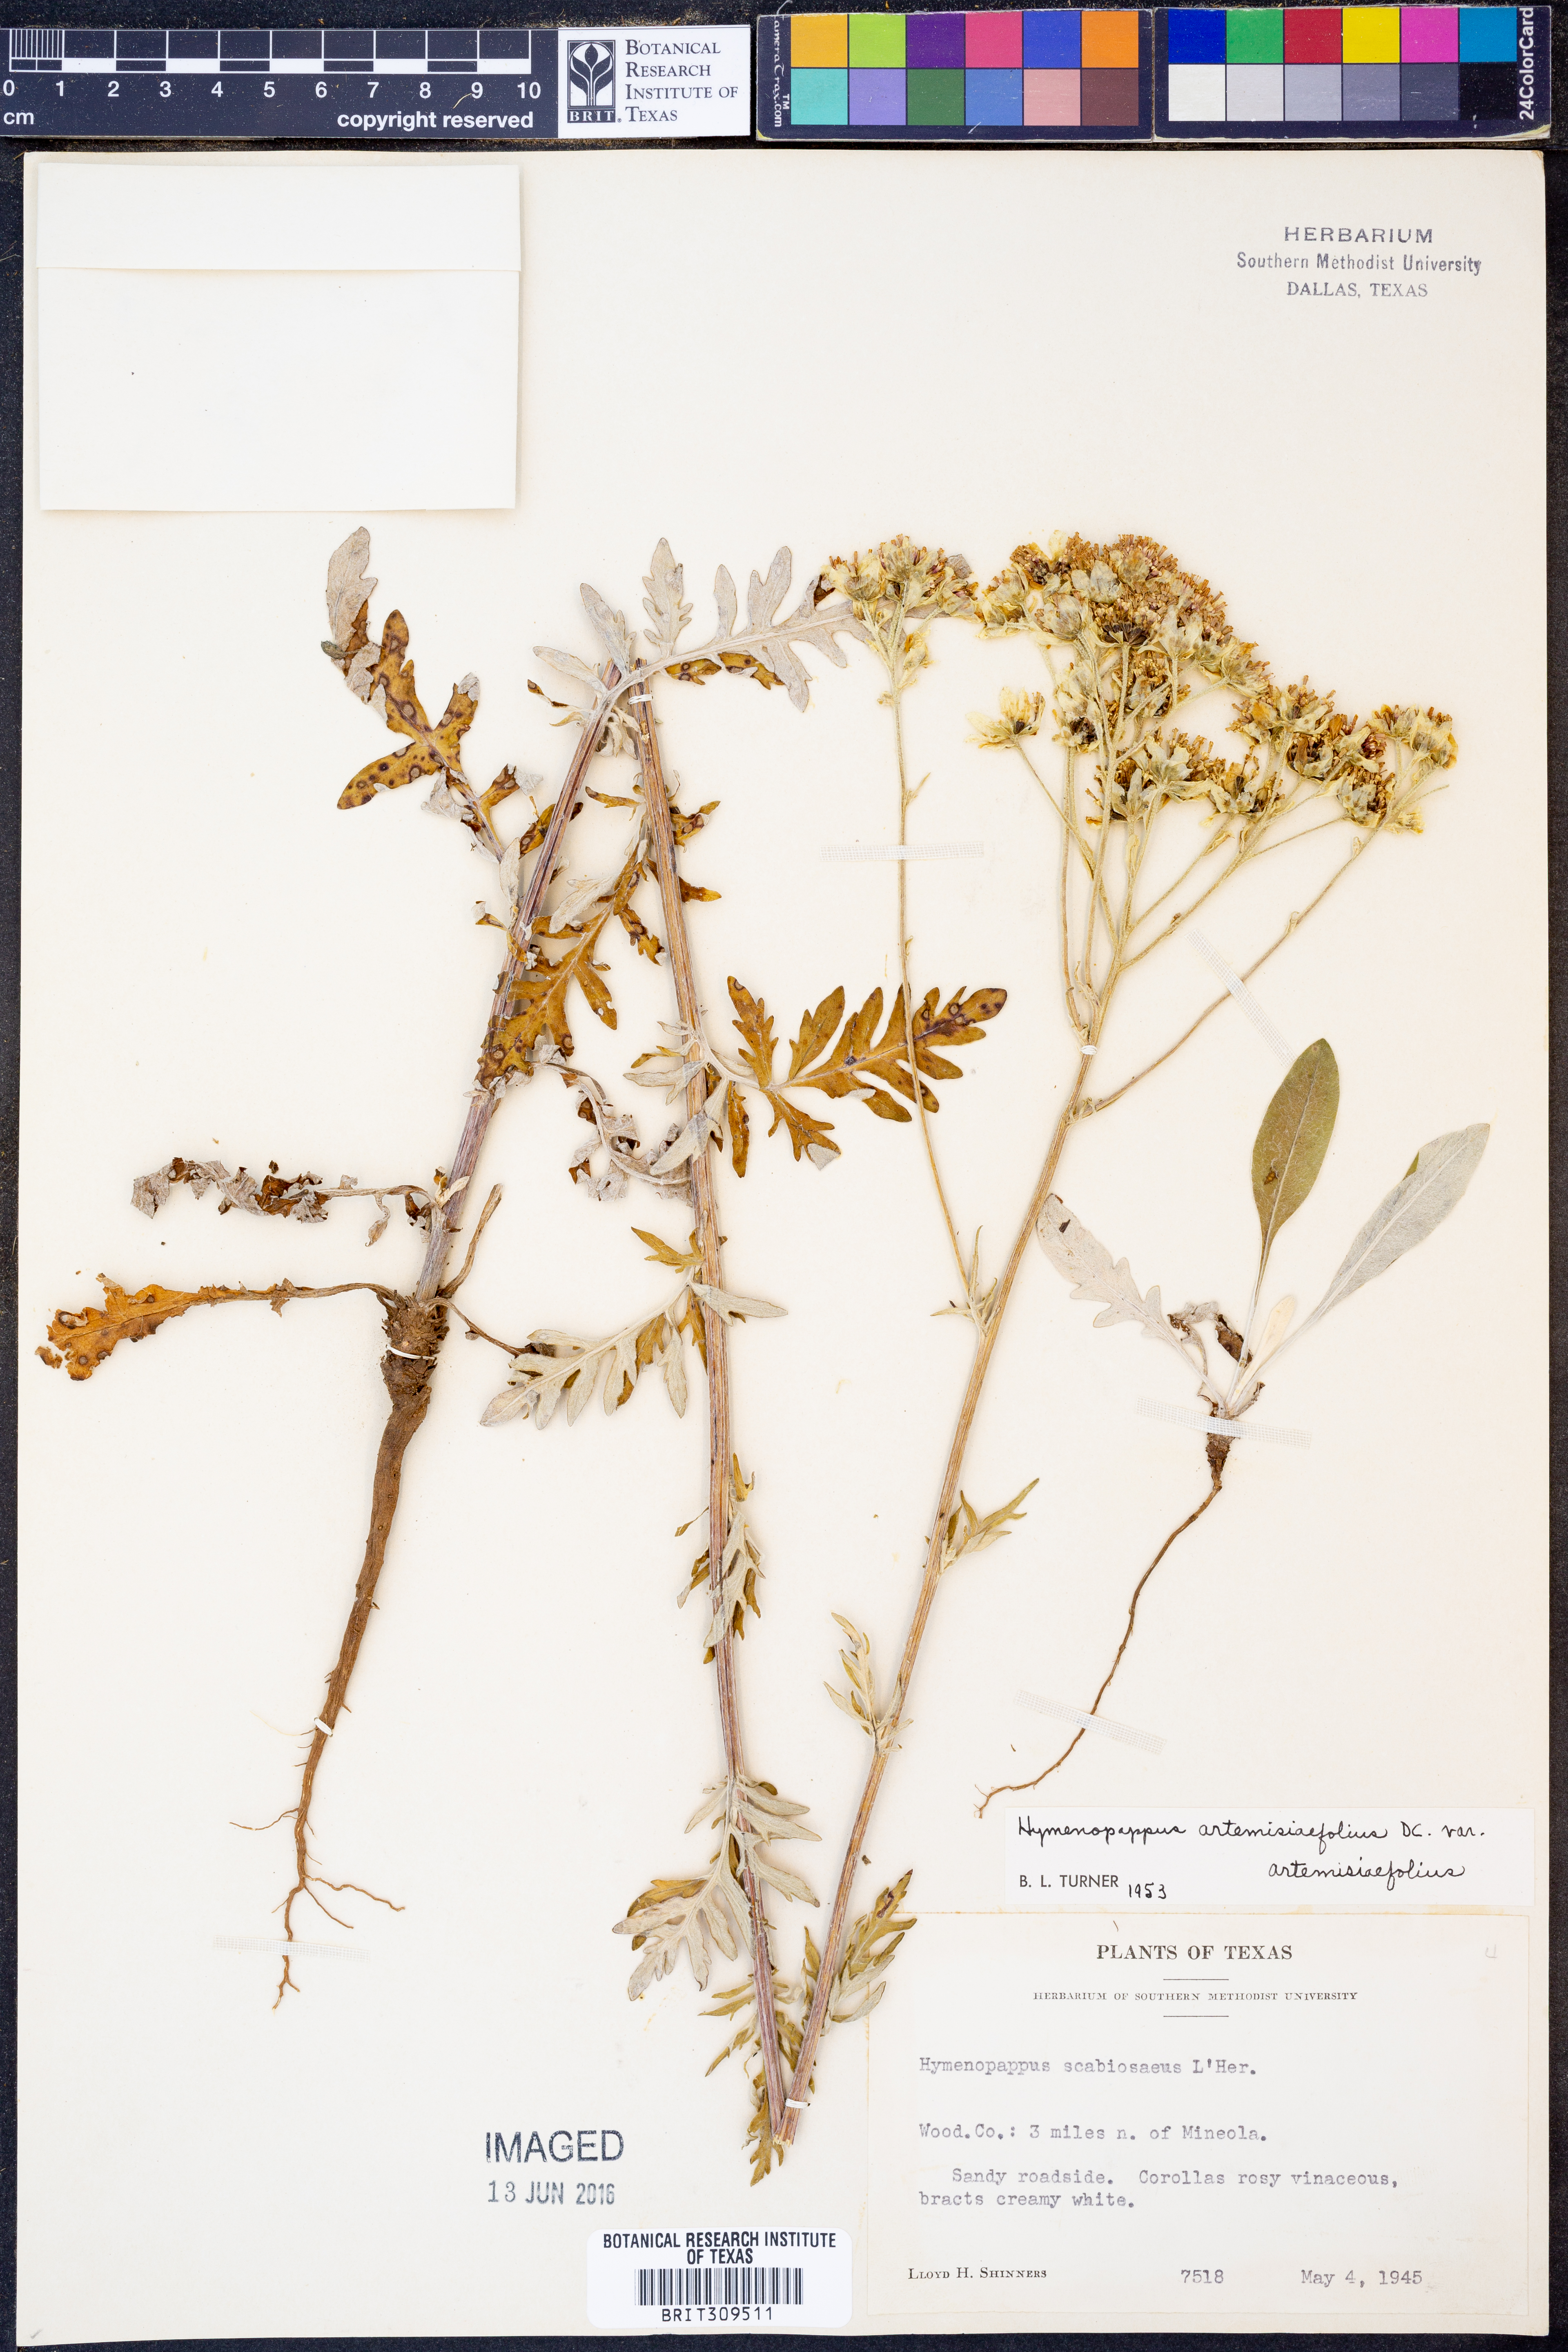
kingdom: Plantae
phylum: Tracheophyta
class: Magnoliopsida
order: Asterales
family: Asteraceae
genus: Hymenopappus
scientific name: Hymenopappus artemisiifolius
